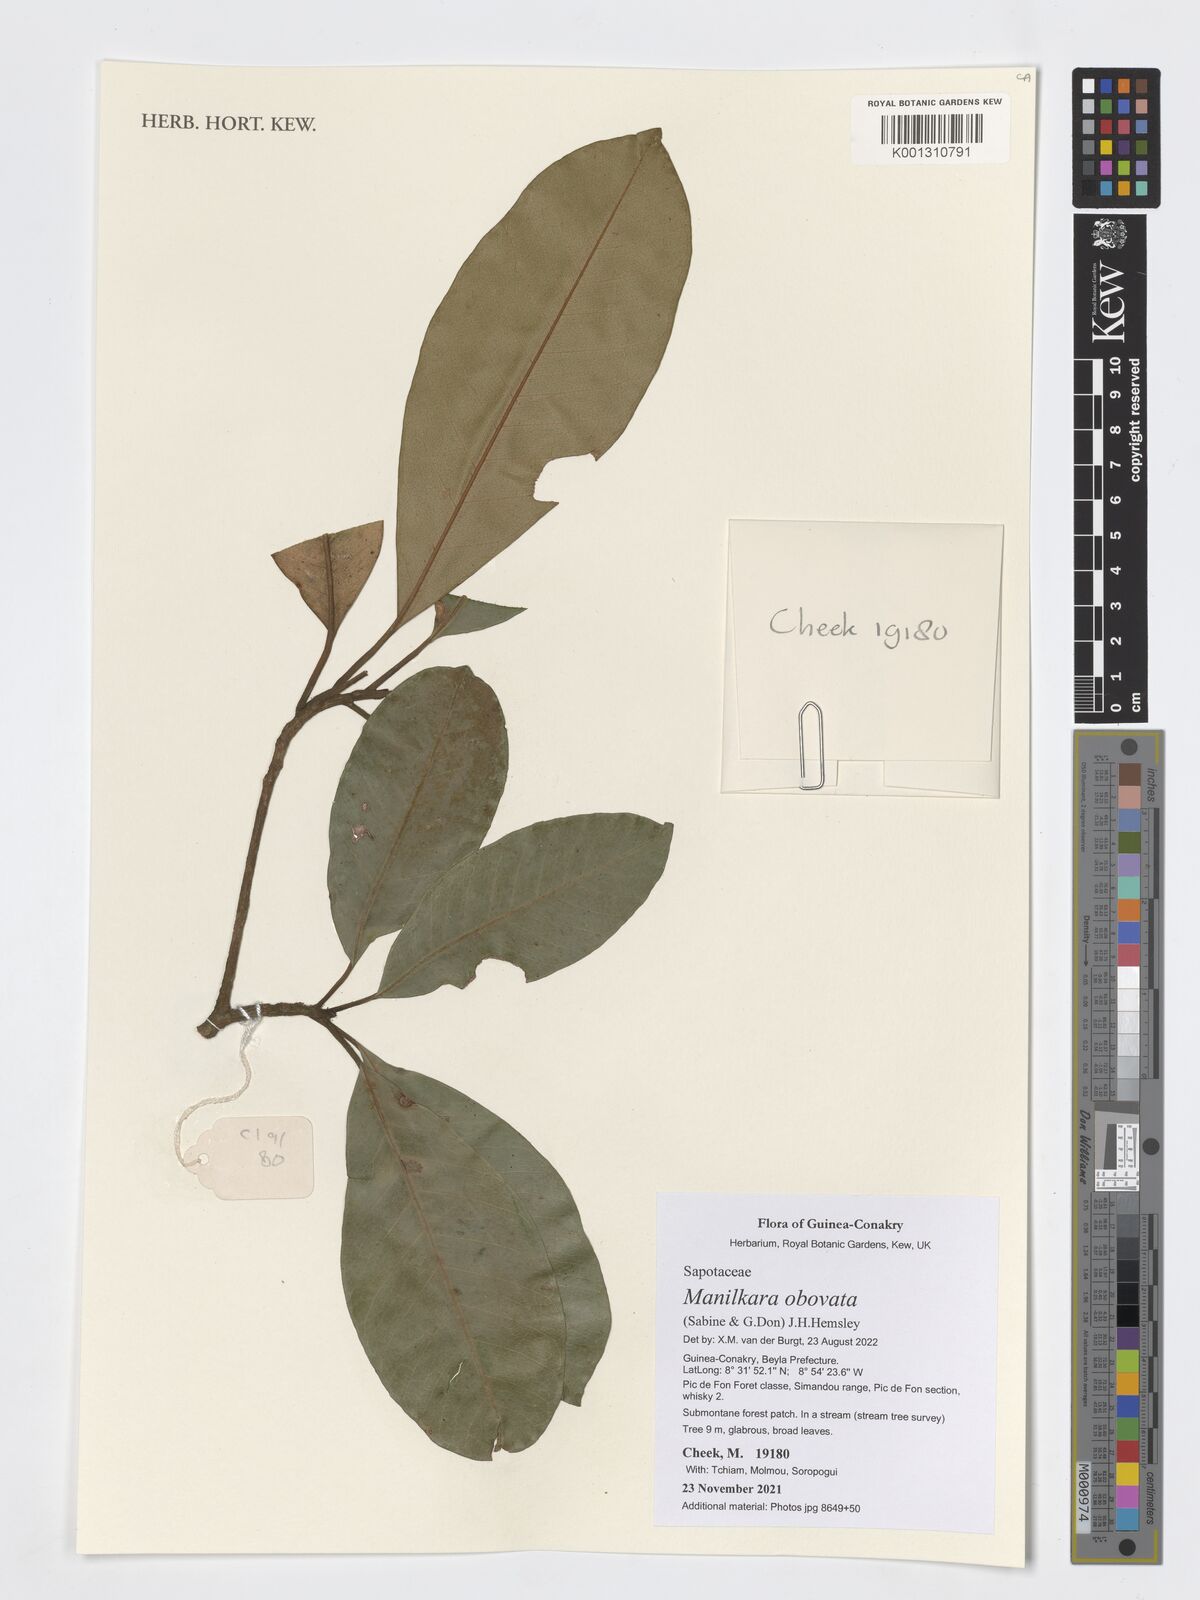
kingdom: Plantae
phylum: Tracheophyta
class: Magnoliopsida
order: Ericales
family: Sapotaceae
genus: Manilkara
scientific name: Manilkara obovata
